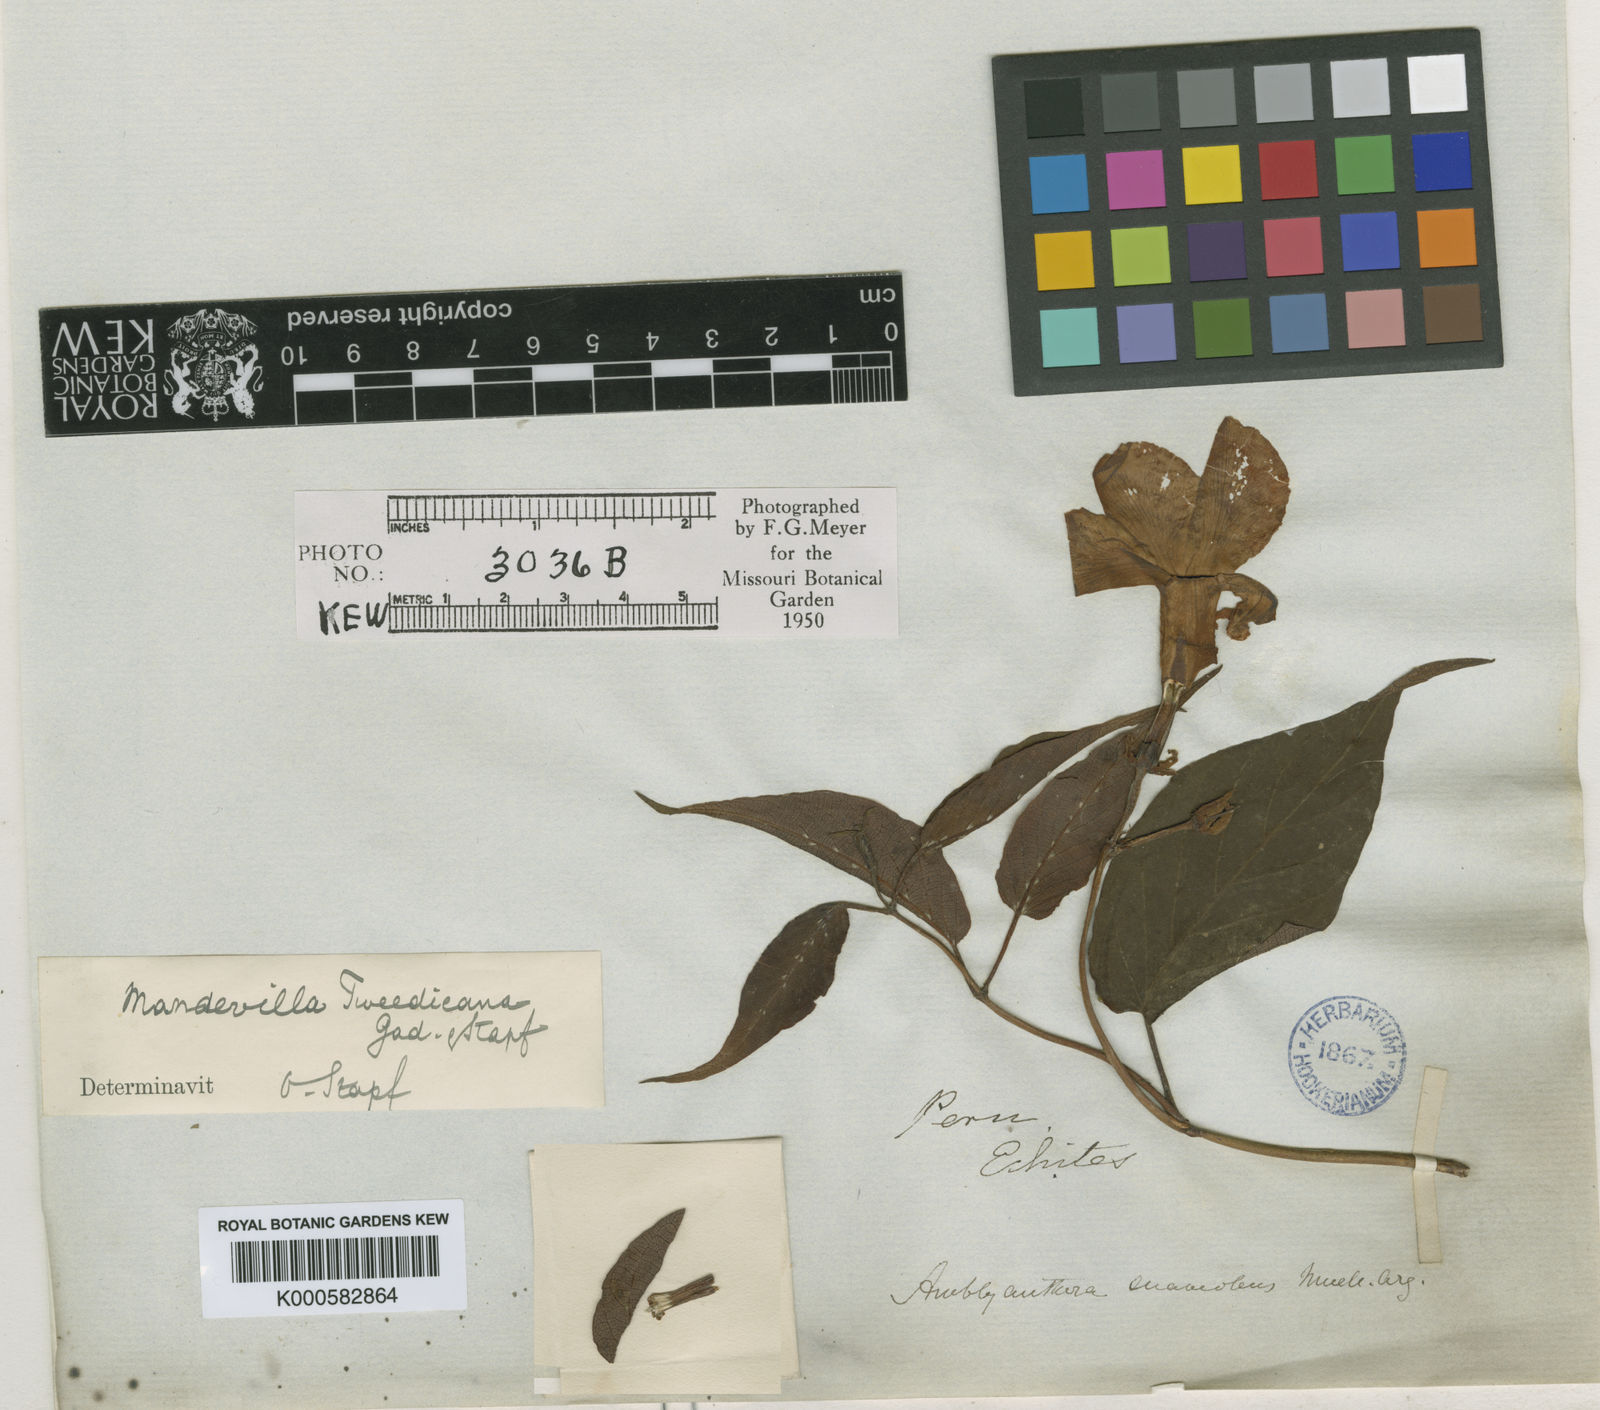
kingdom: Plantae
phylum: Tracheophyta
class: Magnoliopsida
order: Gentianales
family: Apocynaceae
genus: Mandevilla
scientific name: Mandevilla laxa
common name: Chilean-jasmine
